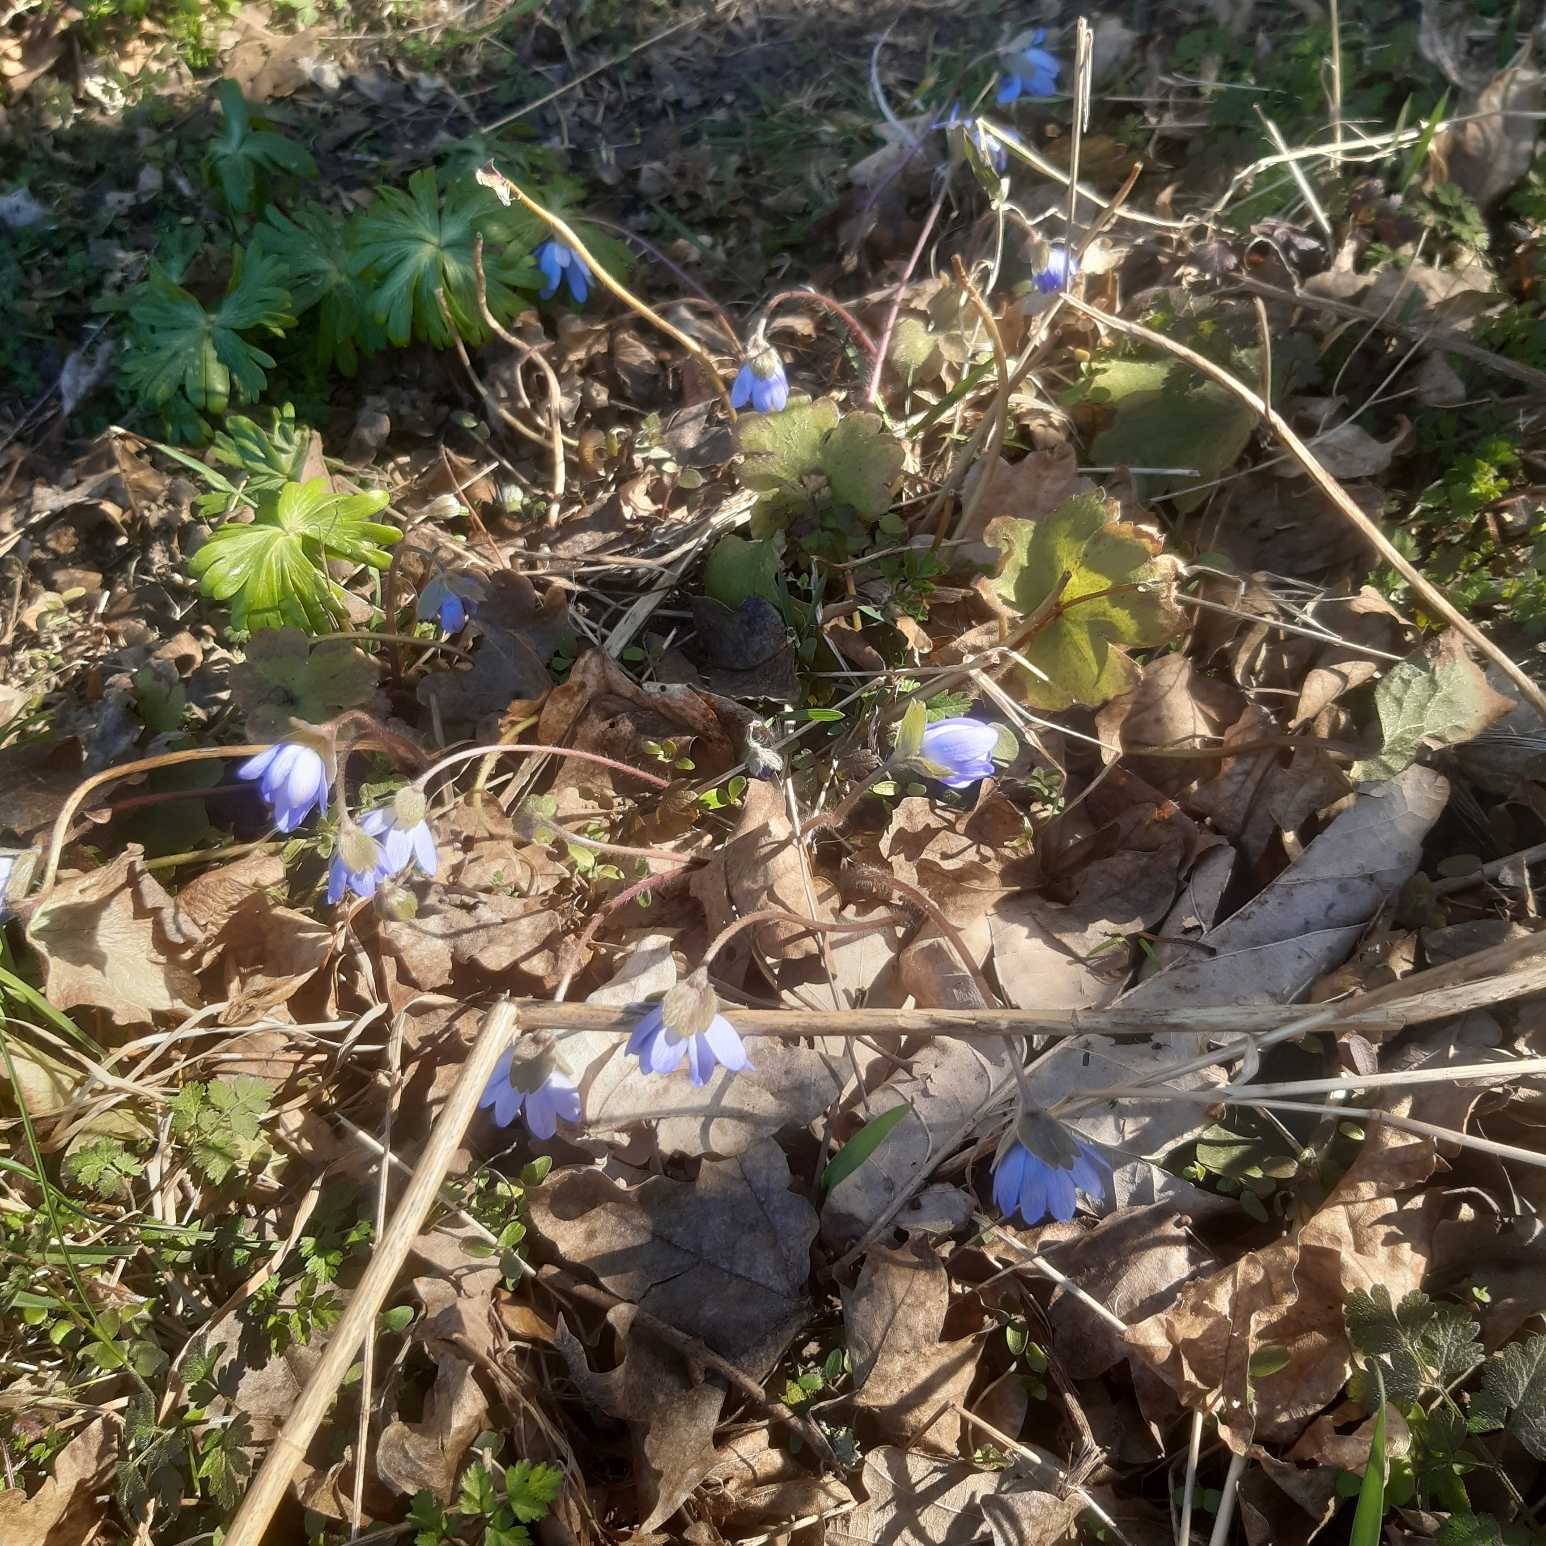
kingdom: Plantae
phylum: Tracheophyta
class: Magnoliopsida
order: Ranunculales
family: Ranunculaceae
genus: Hepatica
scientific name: Hepatica transsilvanica
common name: Ungarsk anemone
